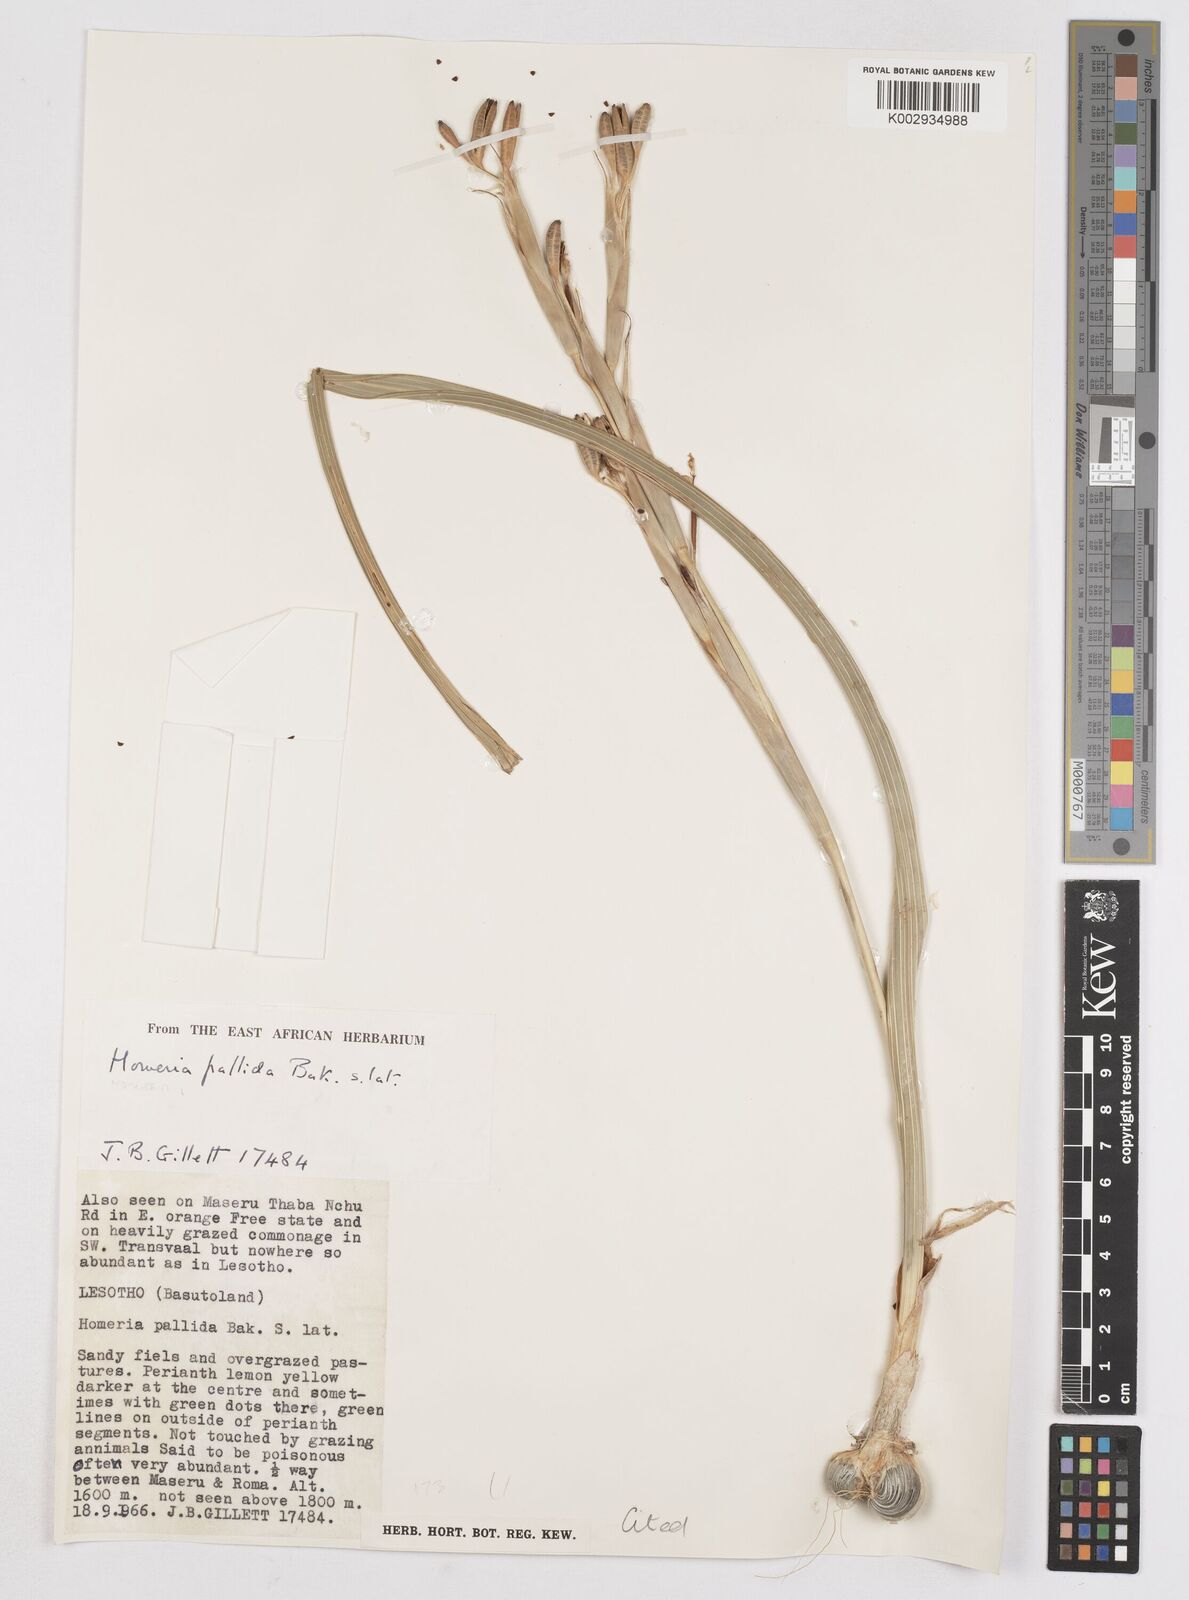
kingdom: Plantae
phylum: Tracheophyta
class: Liliopsida
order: Asparagales
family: Iridaceae
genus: Moraea
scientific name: Moraea pallida
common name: Yellow tulp
